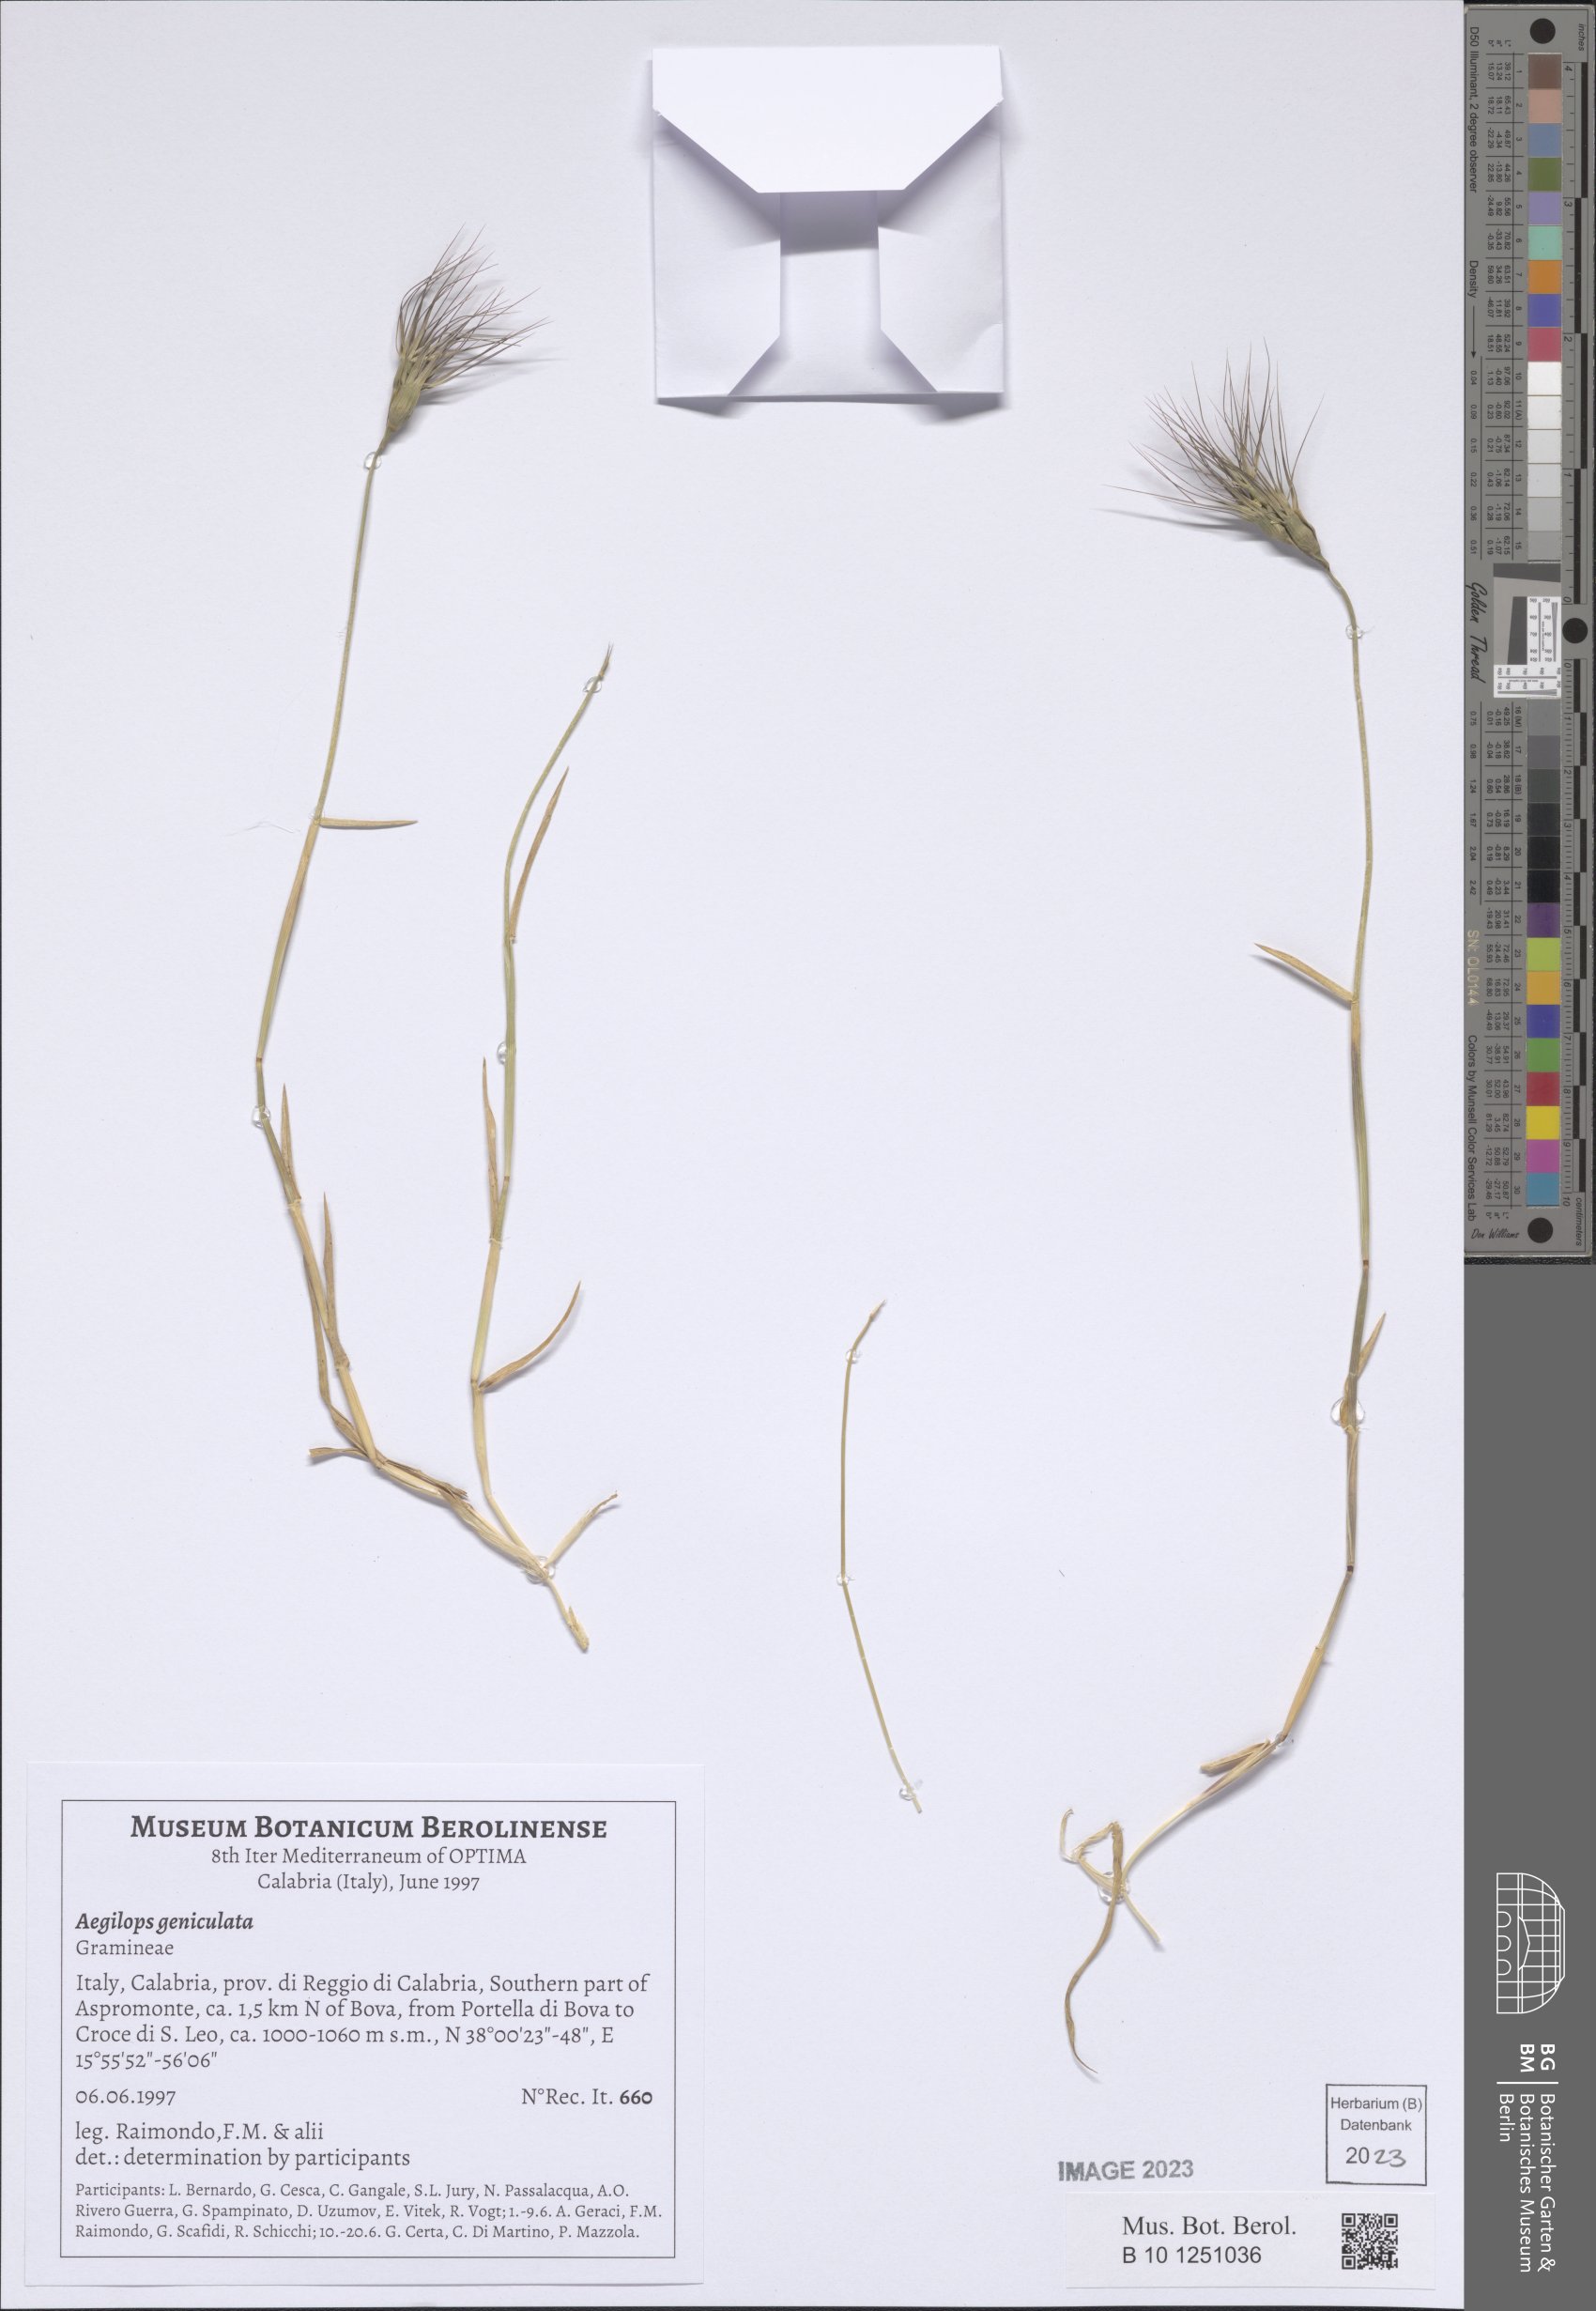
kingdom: Plantae
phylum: Tracheophyta
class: Liliopsida
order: Poales
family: Poaceae
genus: Aegilops
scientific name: Aegilops geniculata
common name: Ovate goat grass
